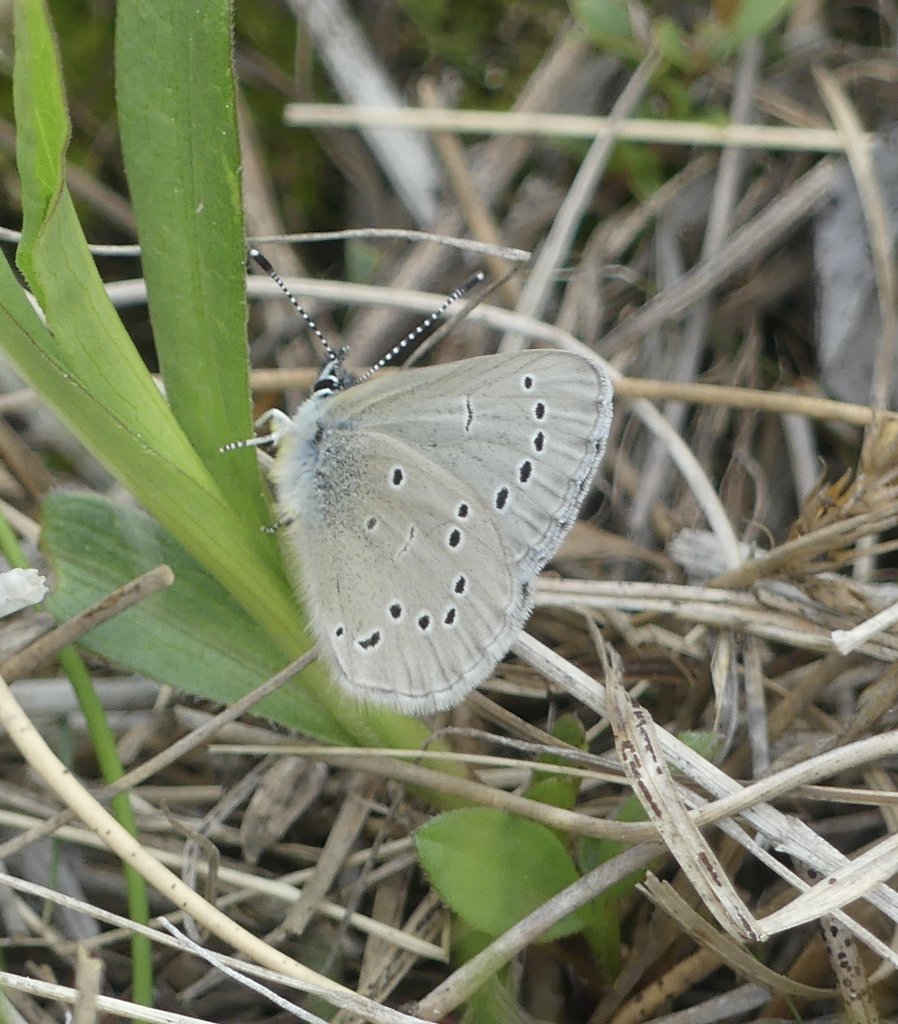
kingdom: Animalia
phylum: Arthropoda
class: Insecta
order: Lepidoptera
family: Lycaenidae
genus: Glaucopsyche
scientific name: Glaucopsyche lygdamus
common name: Silvery Blue
